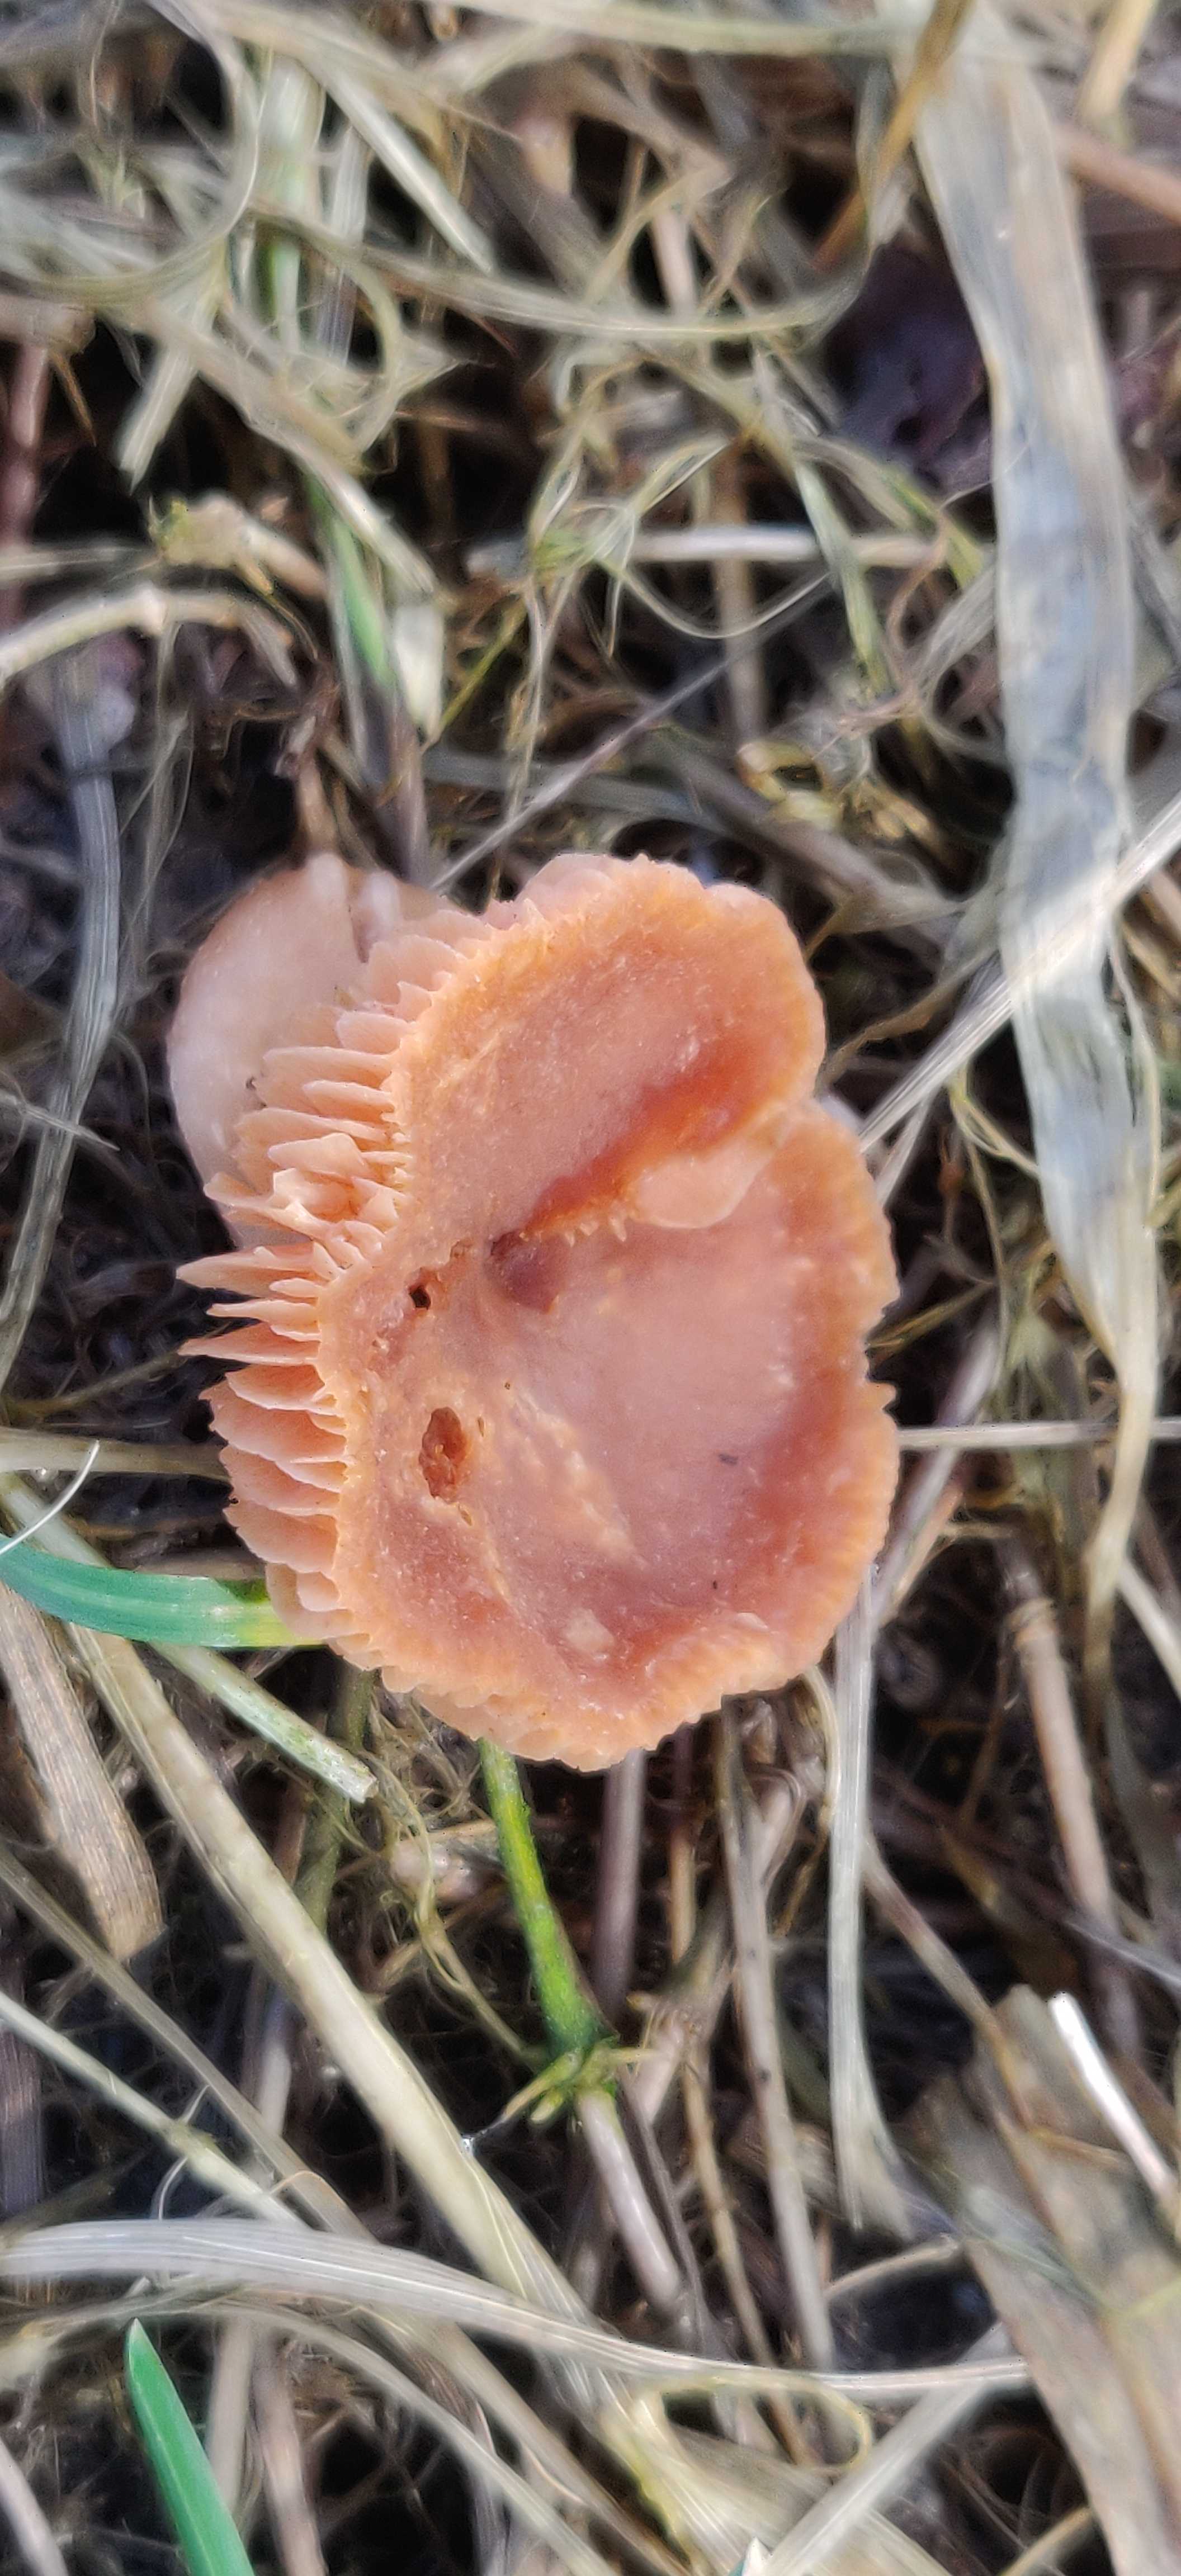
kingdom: Fungi
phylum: Basidiomycota
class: Agaricomycetes
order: Agaricales
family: Tubariaceae
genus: Tubaria
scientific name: Tubaria furfuracea
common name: kliddet fnughat
